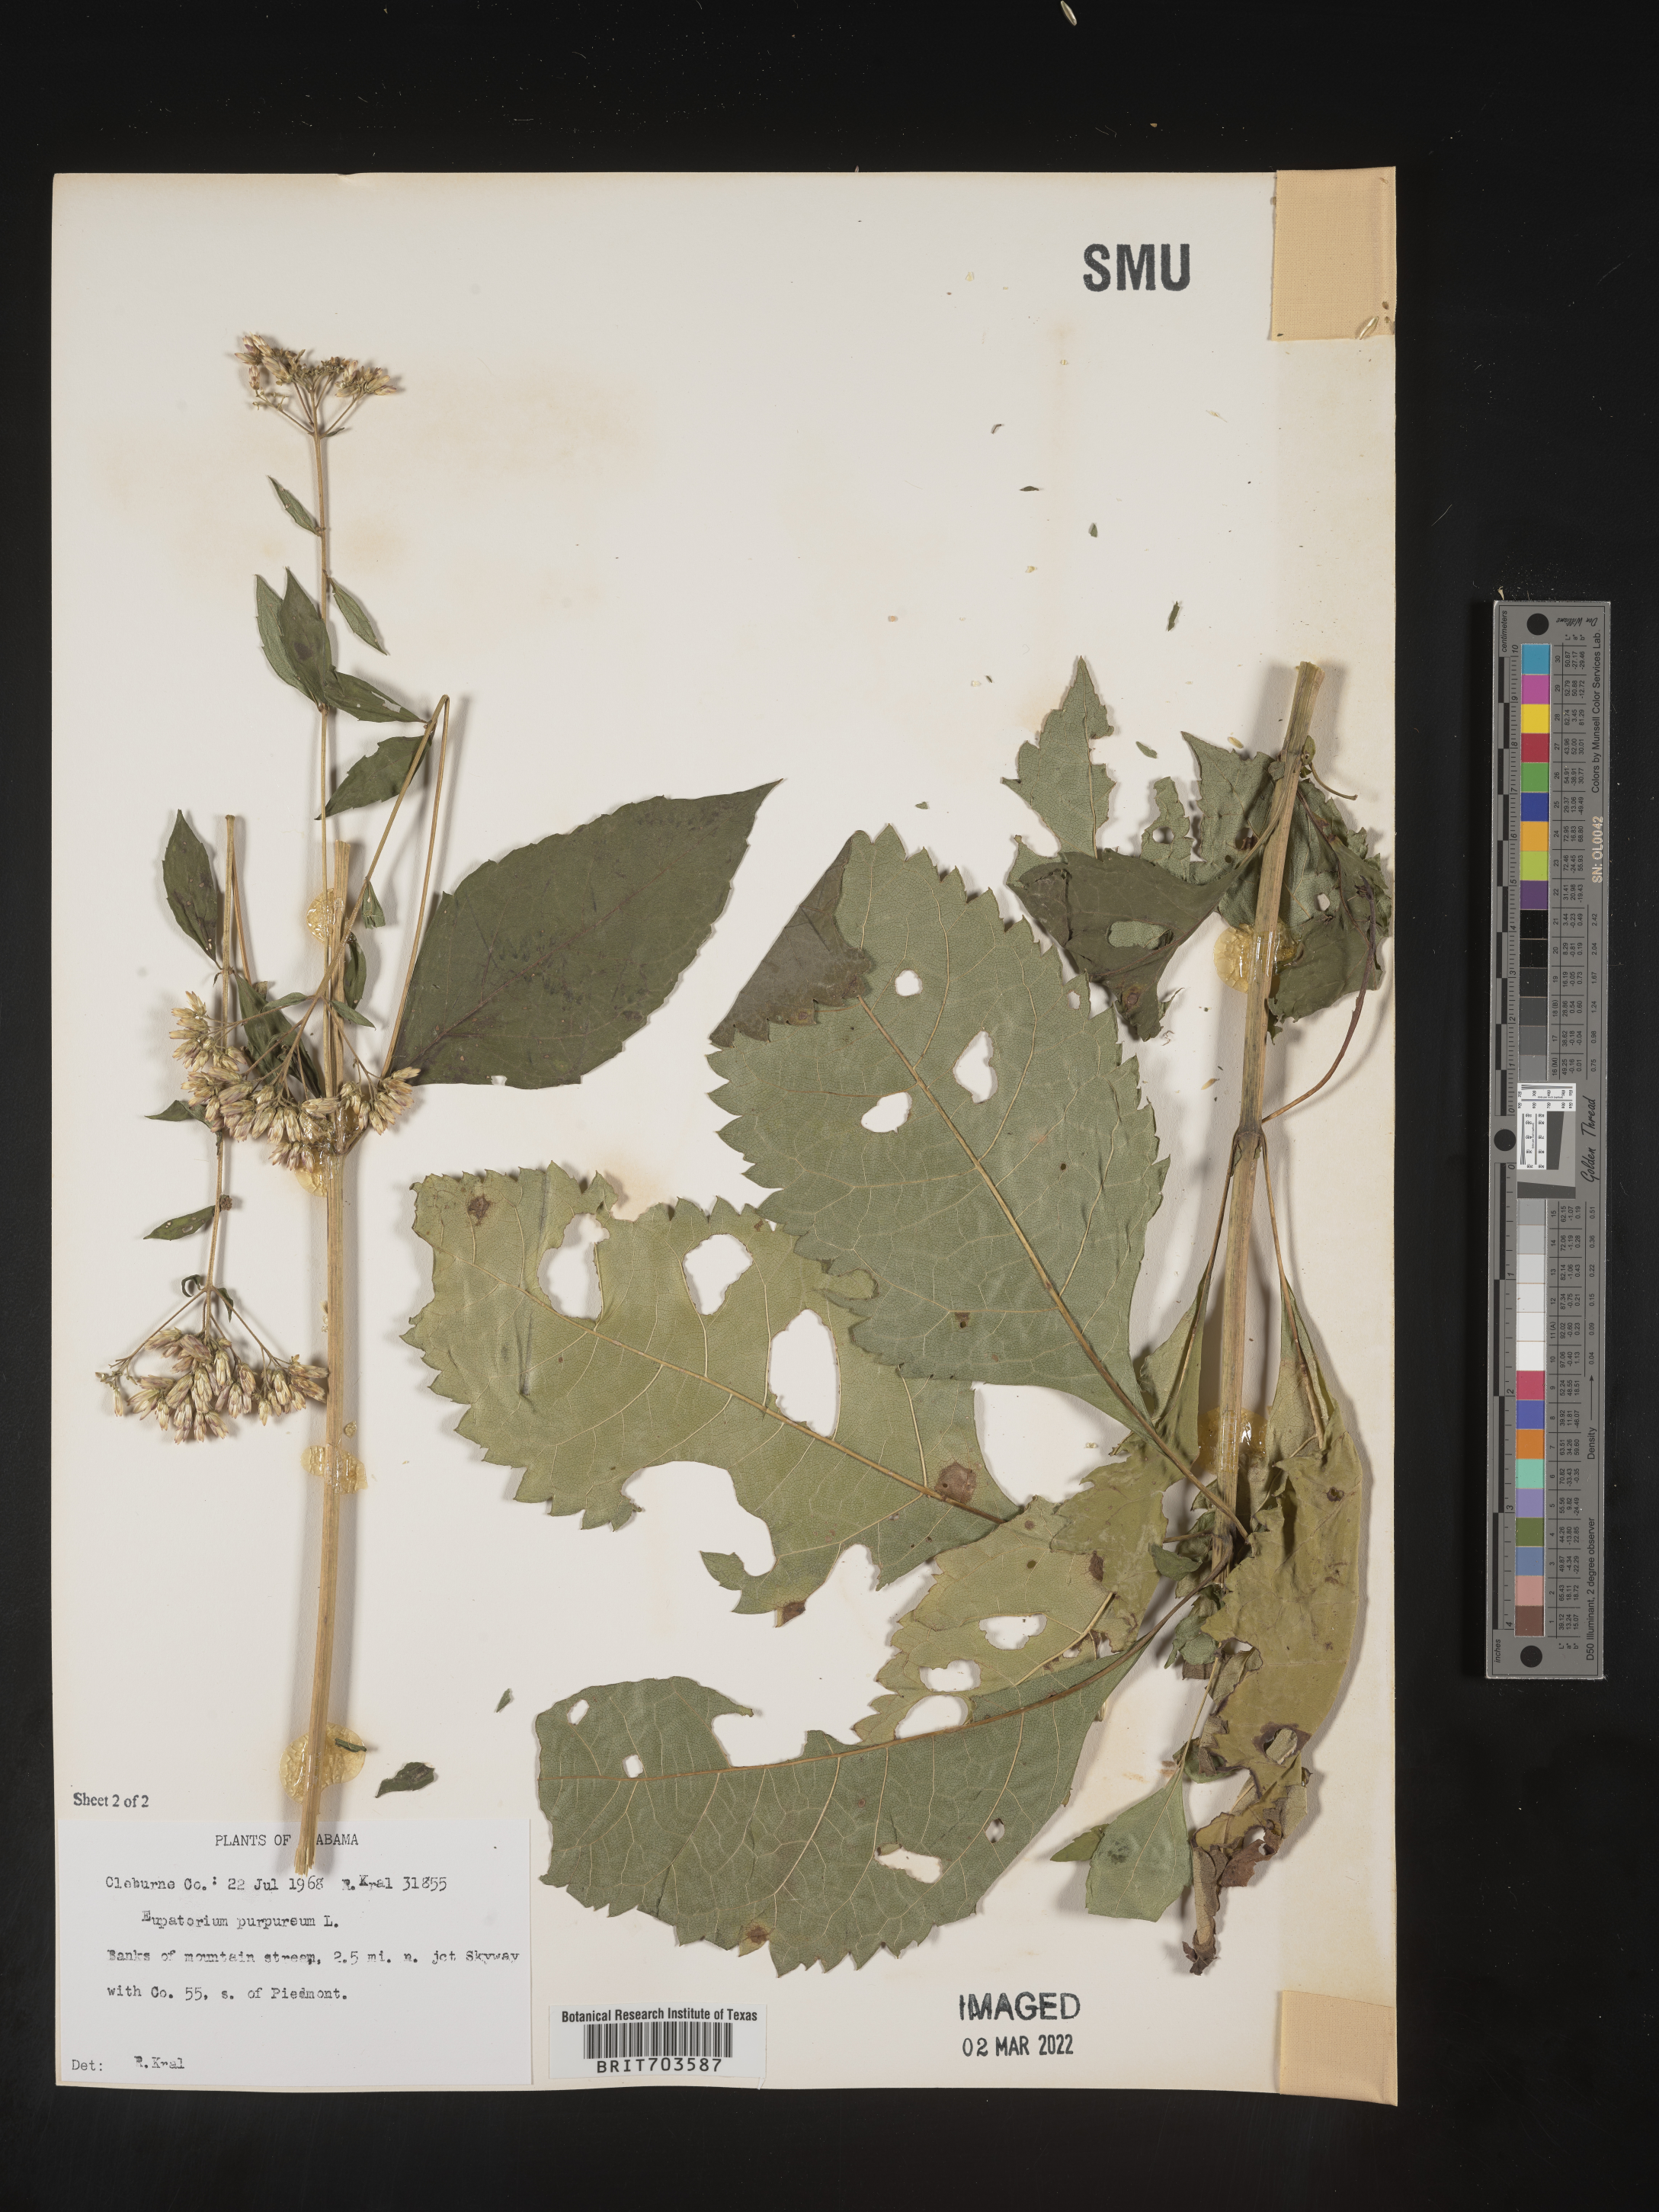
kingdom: Plantae
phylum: Tracheophyta
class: Magnoliopsida
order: Asterales
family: Asteraceae
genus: Eupatorium
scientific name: Eupatorium quaternum
